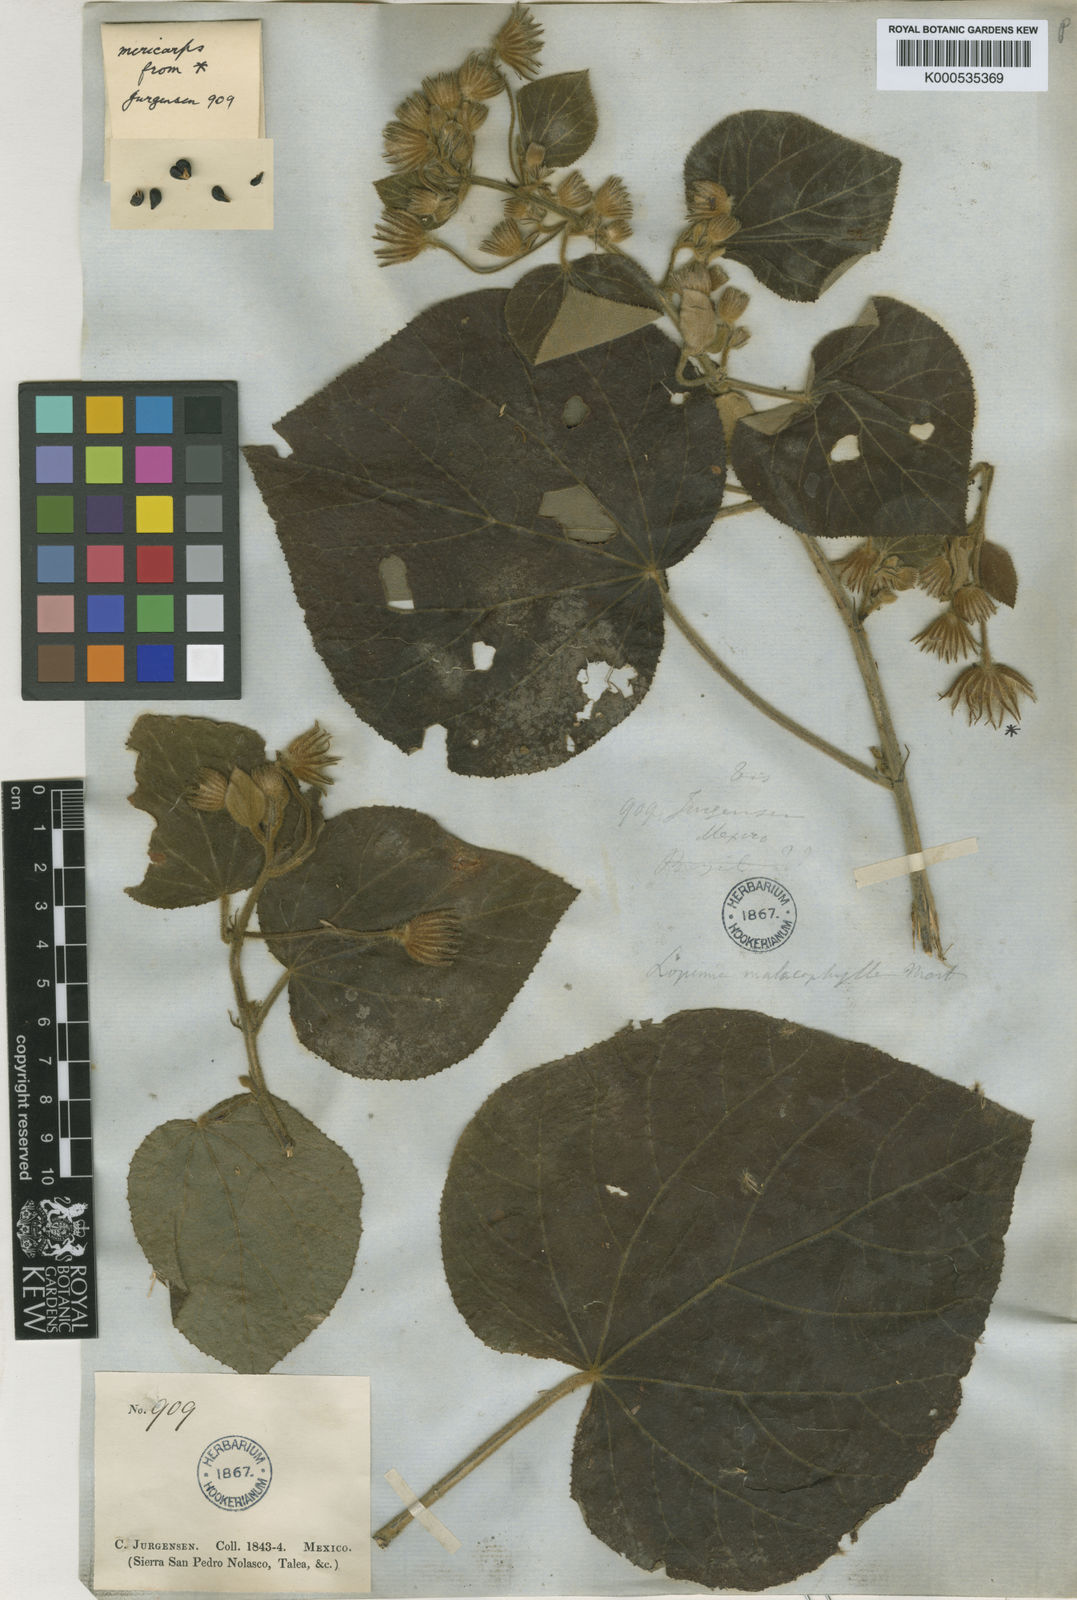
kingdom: Plantae
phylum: Tracheophyta
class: Magnoliopsida
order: Malvales
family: Malvaceae
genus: Pavonia
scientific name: Pavonia malacophylla
